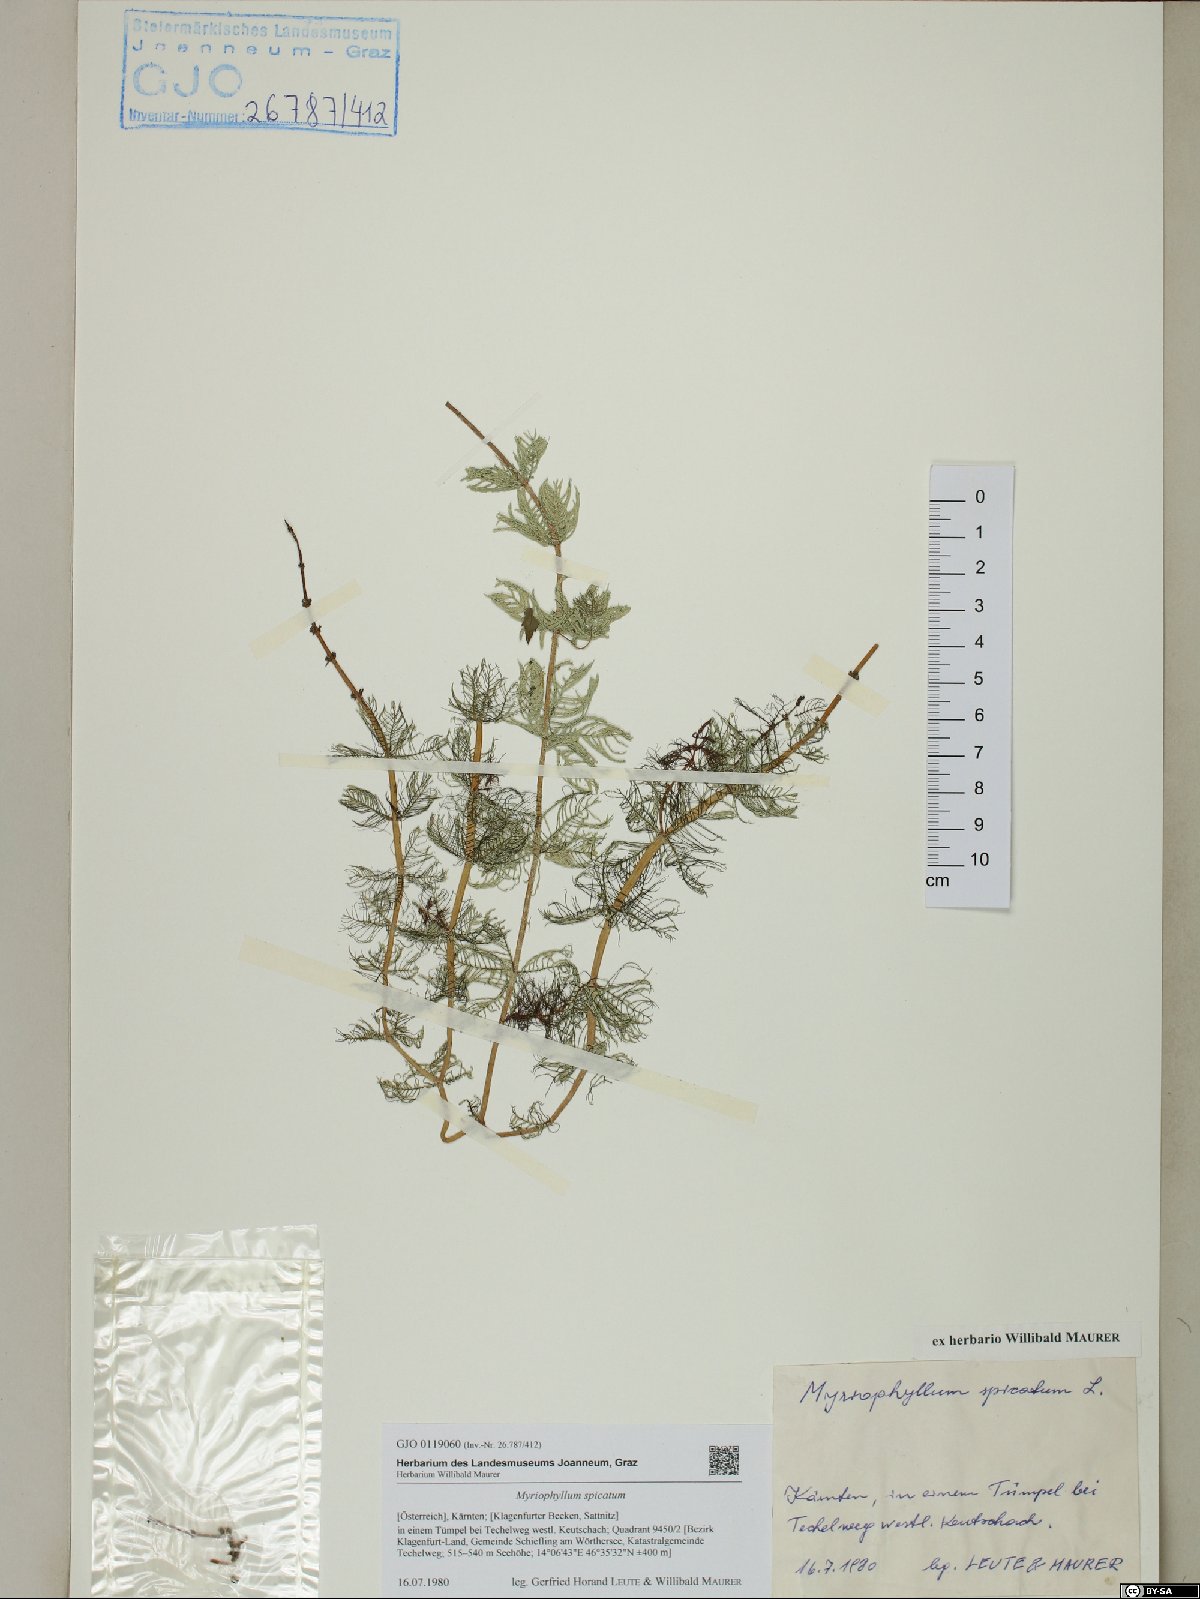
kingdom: Plantae
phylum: Tracheophyta
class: Magnoliopsida
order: Saxifragales
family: Haloragaceae
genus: Myriophyllum
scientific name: Myriophyllum spicatum
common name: Spiked water-milfoil
